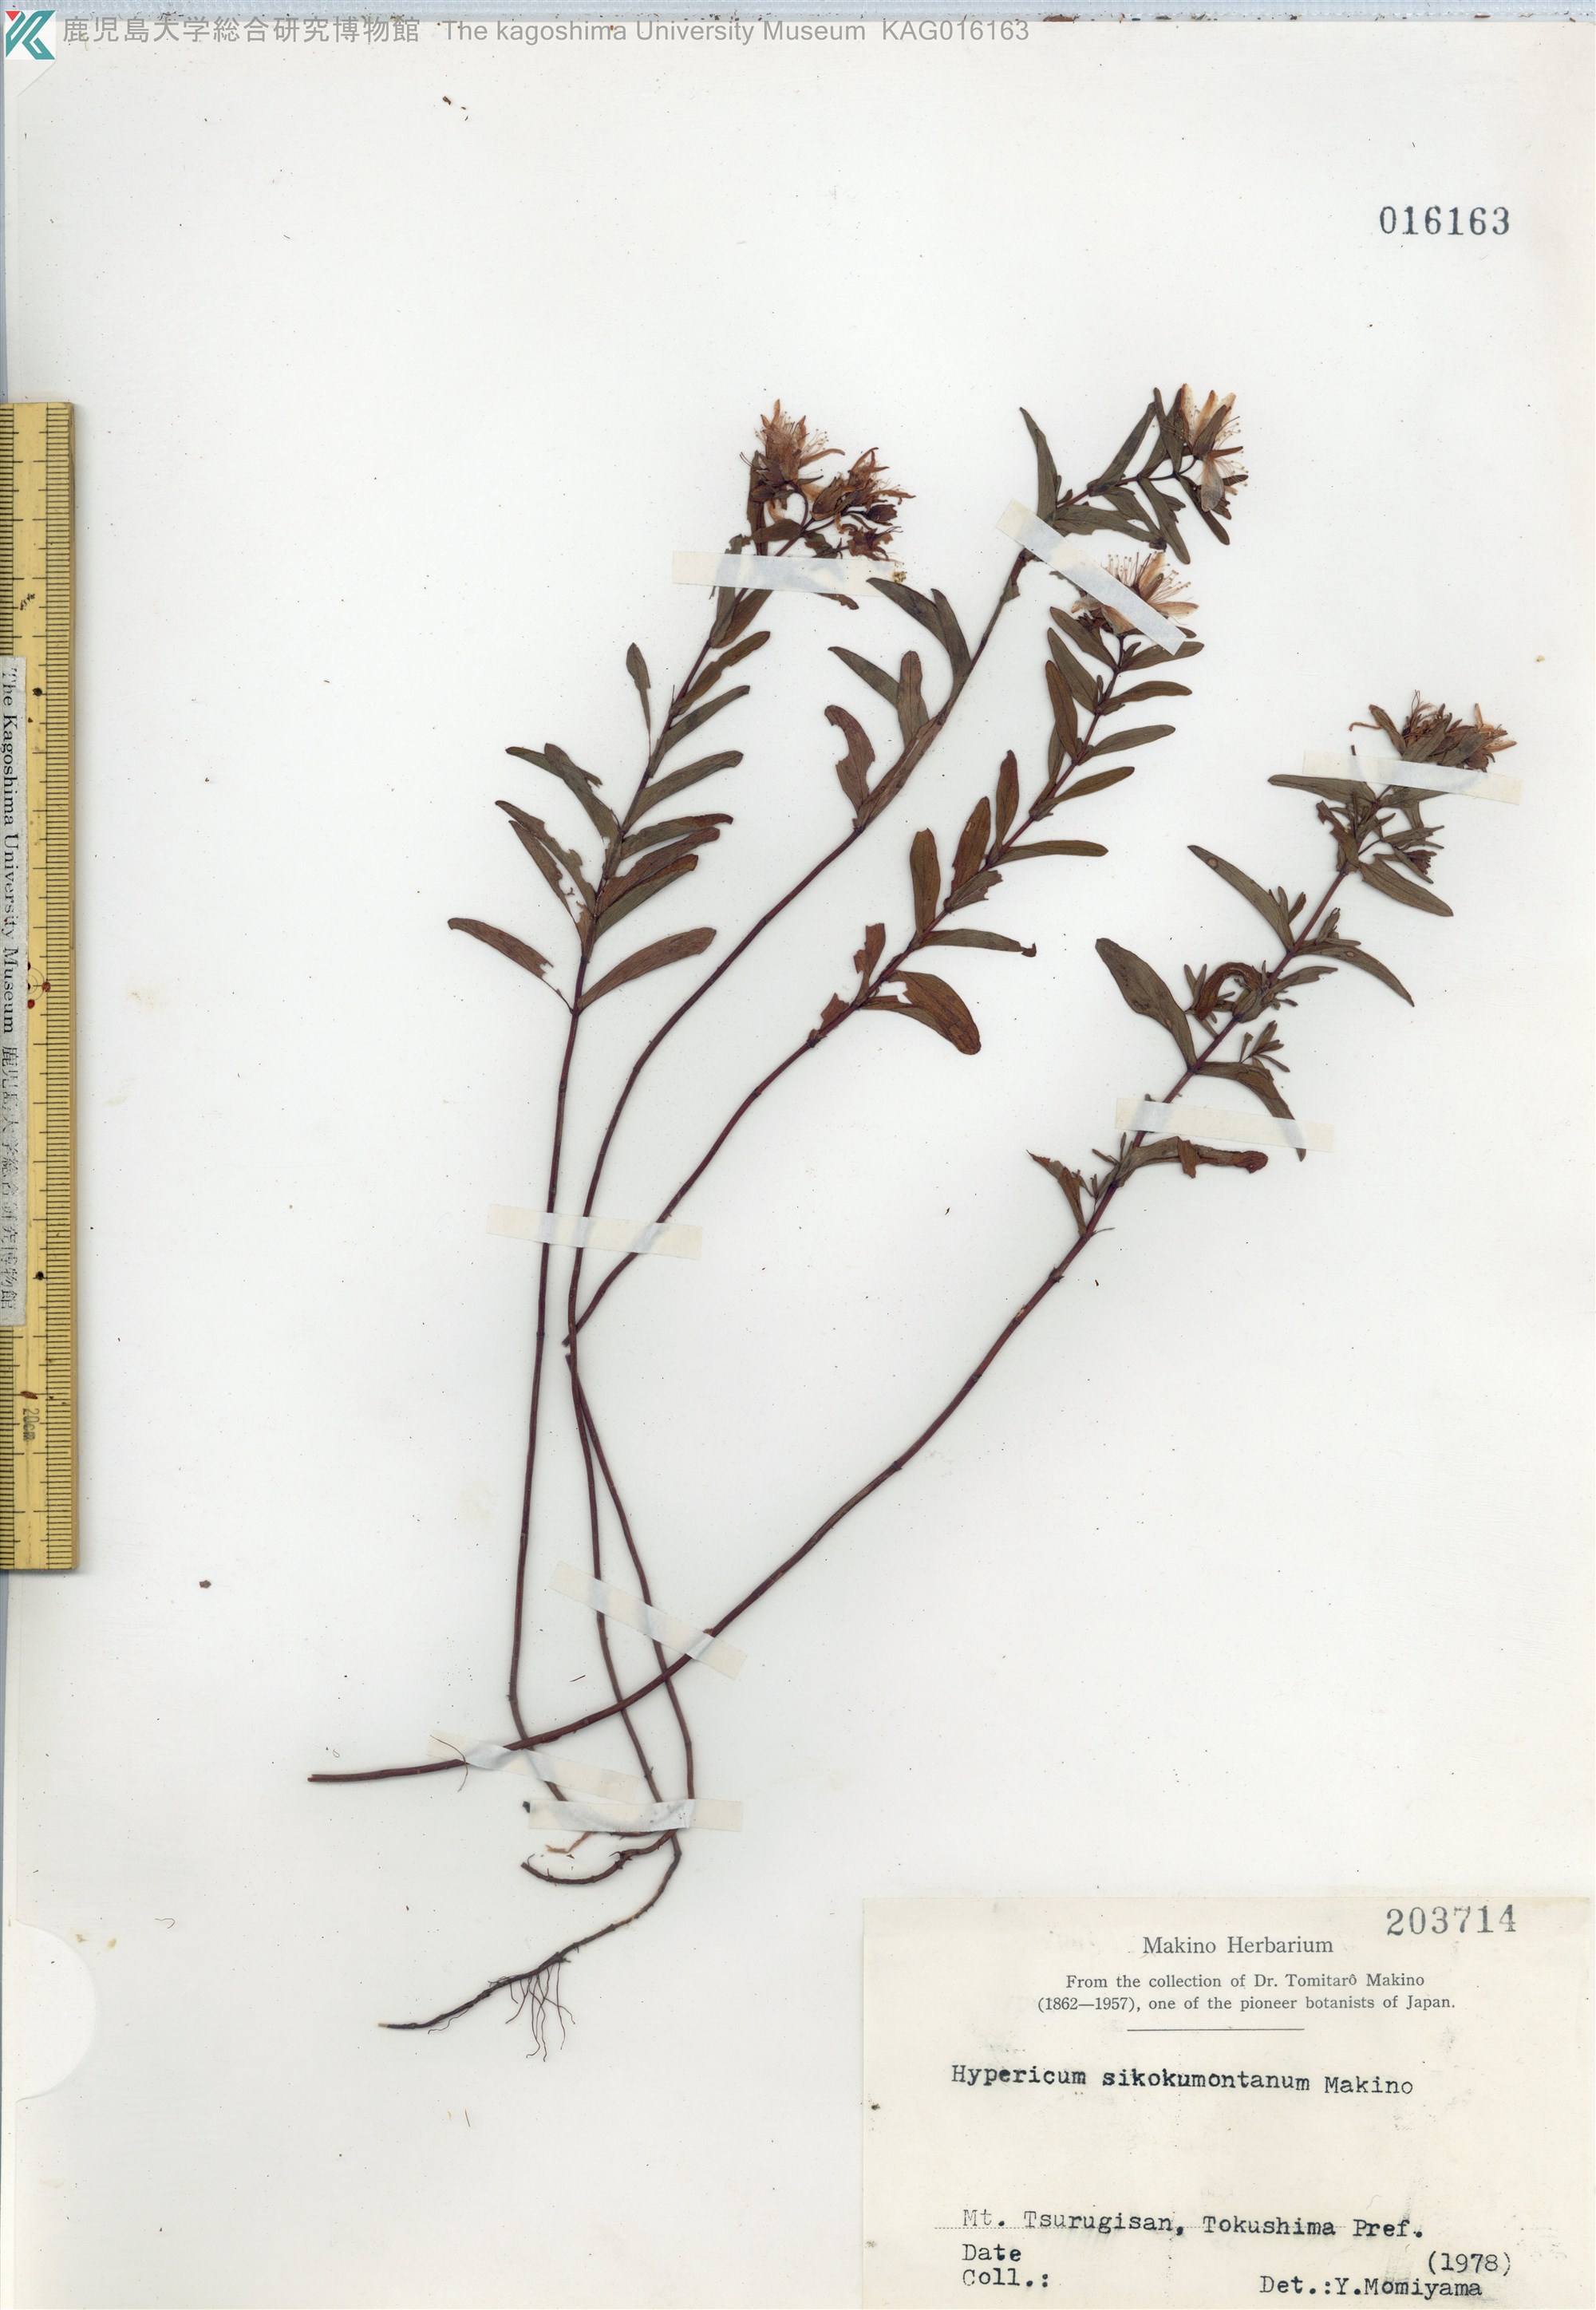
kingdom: Plantae
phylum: Tracheophyta
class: Magnoliopsida
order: Malpighiales
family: Hypericaceae
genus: Hypericum
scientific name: Hypericum sikokumontanum
